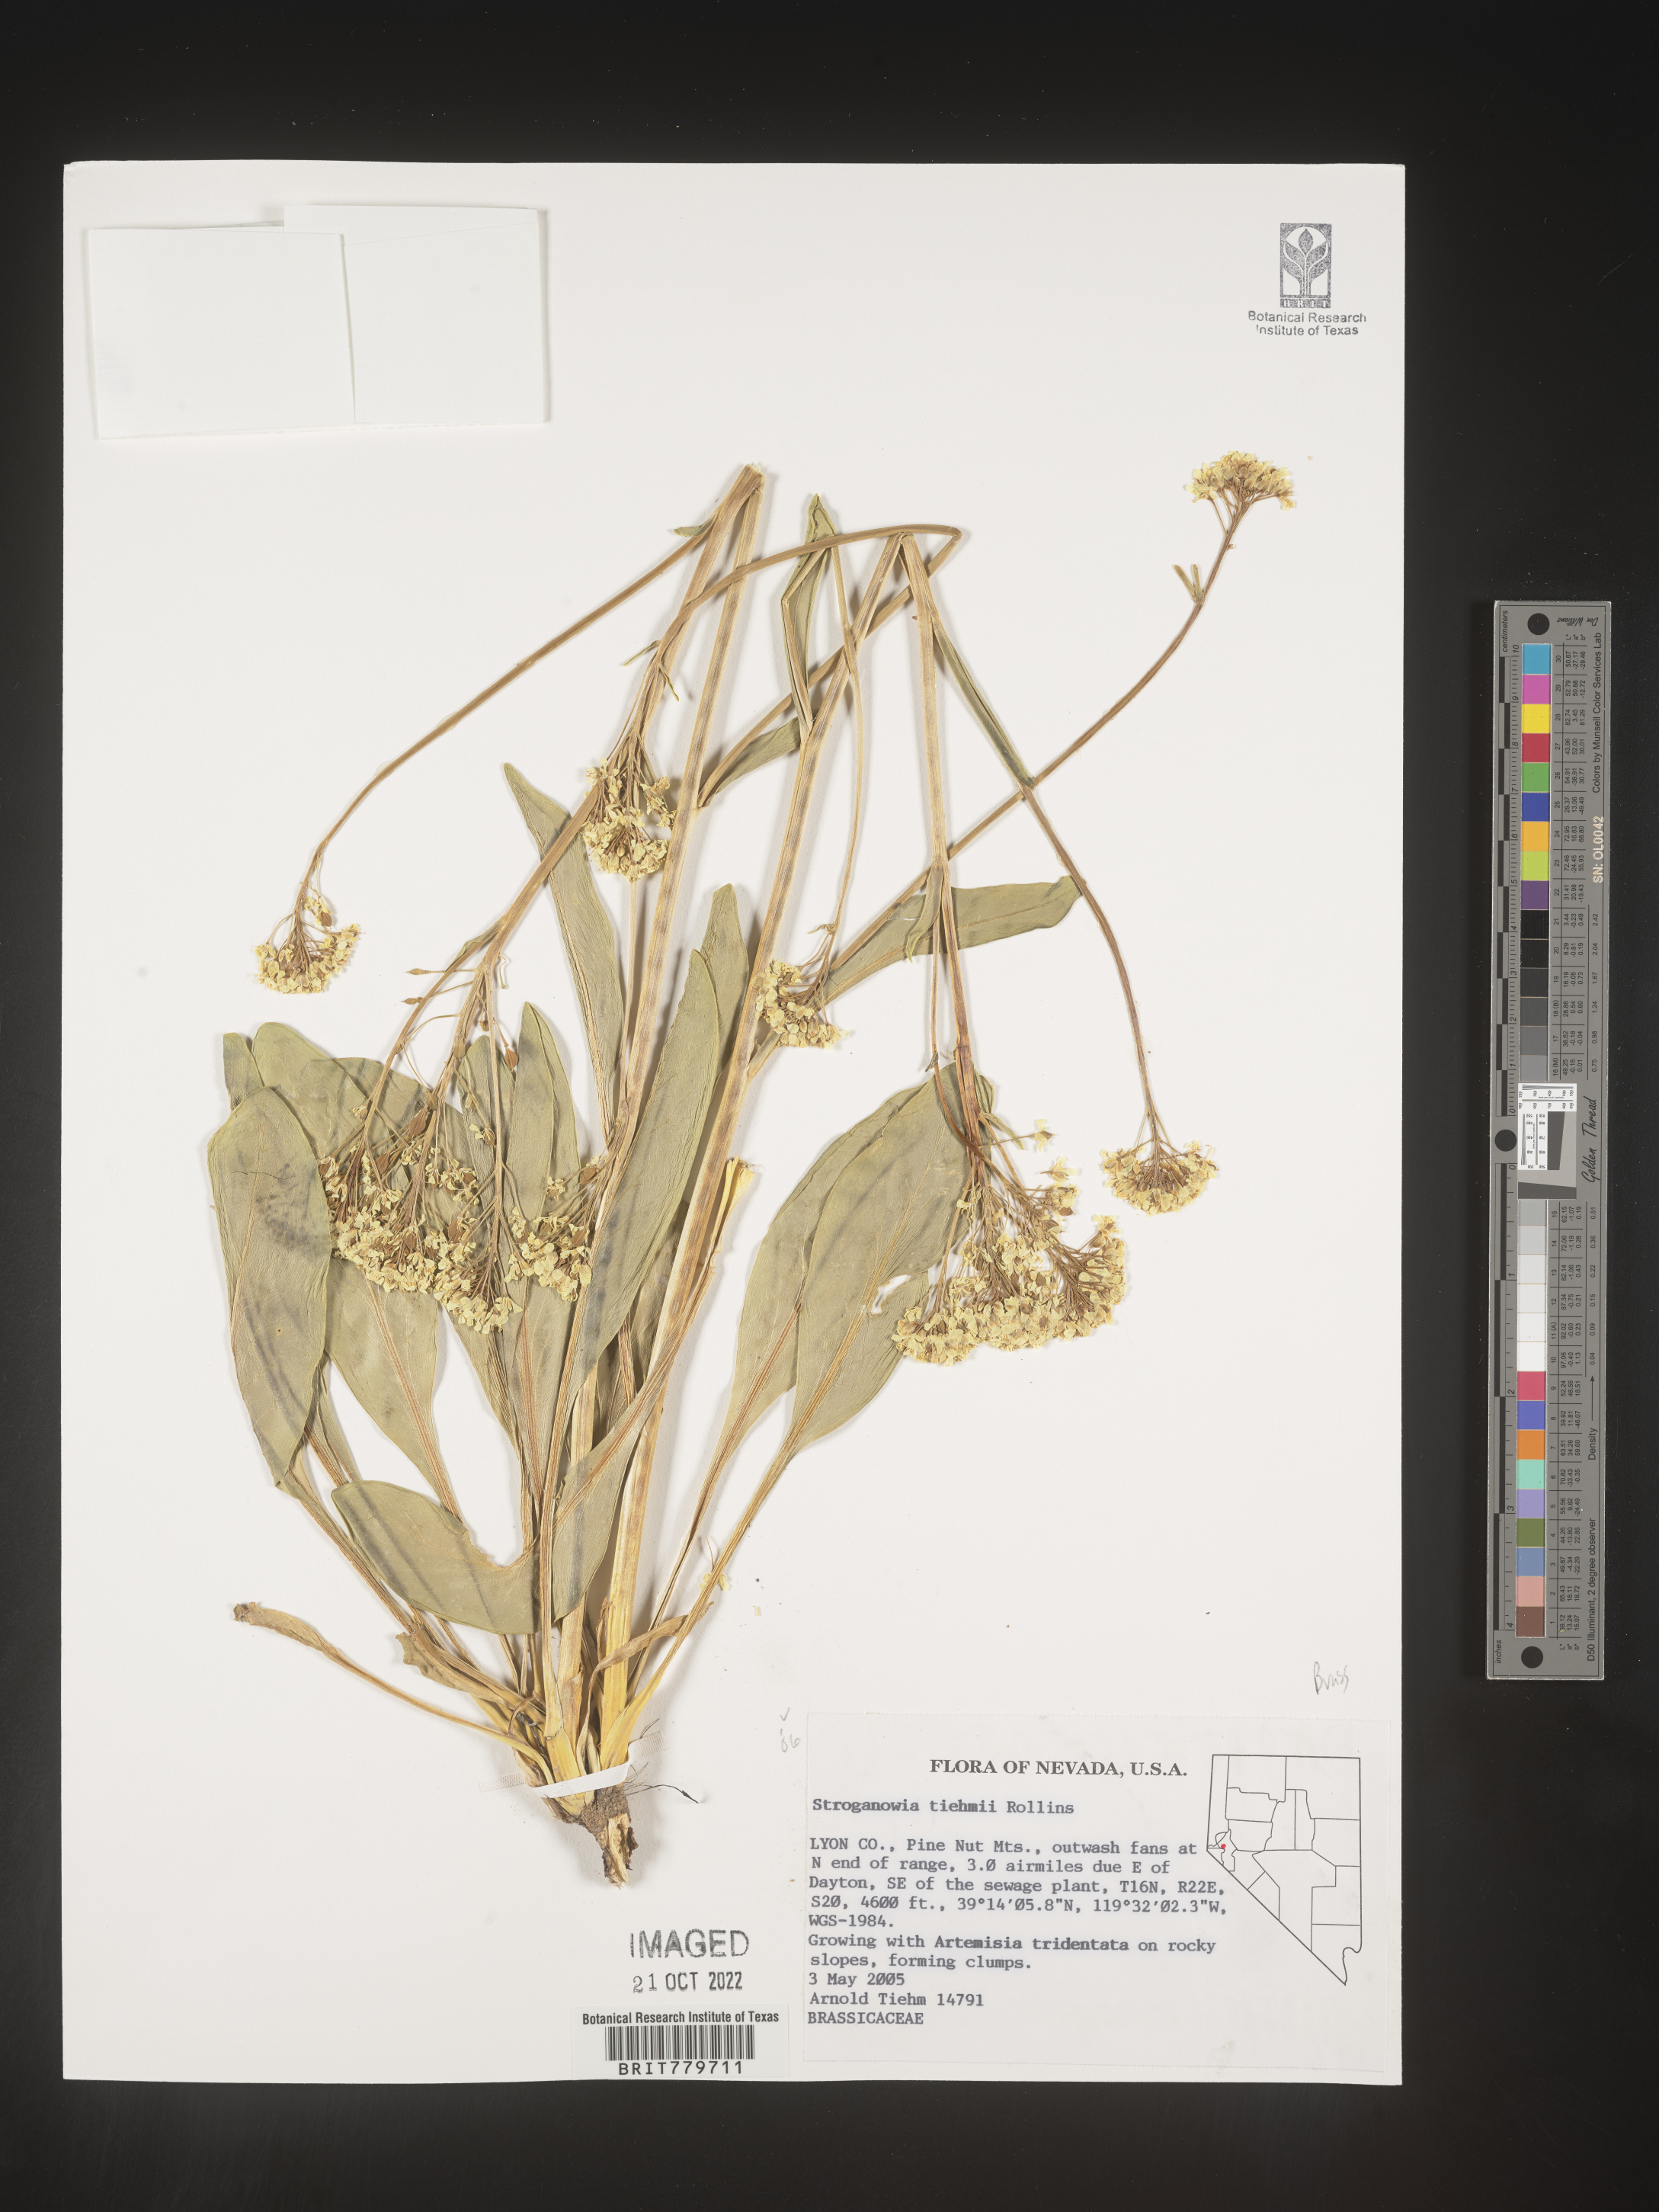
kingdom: Plantae
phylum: Tracheophyta
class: Magnoliopsida
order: Brassicales
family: Brassicaceae
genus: Lepidium
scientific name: Lepidium
